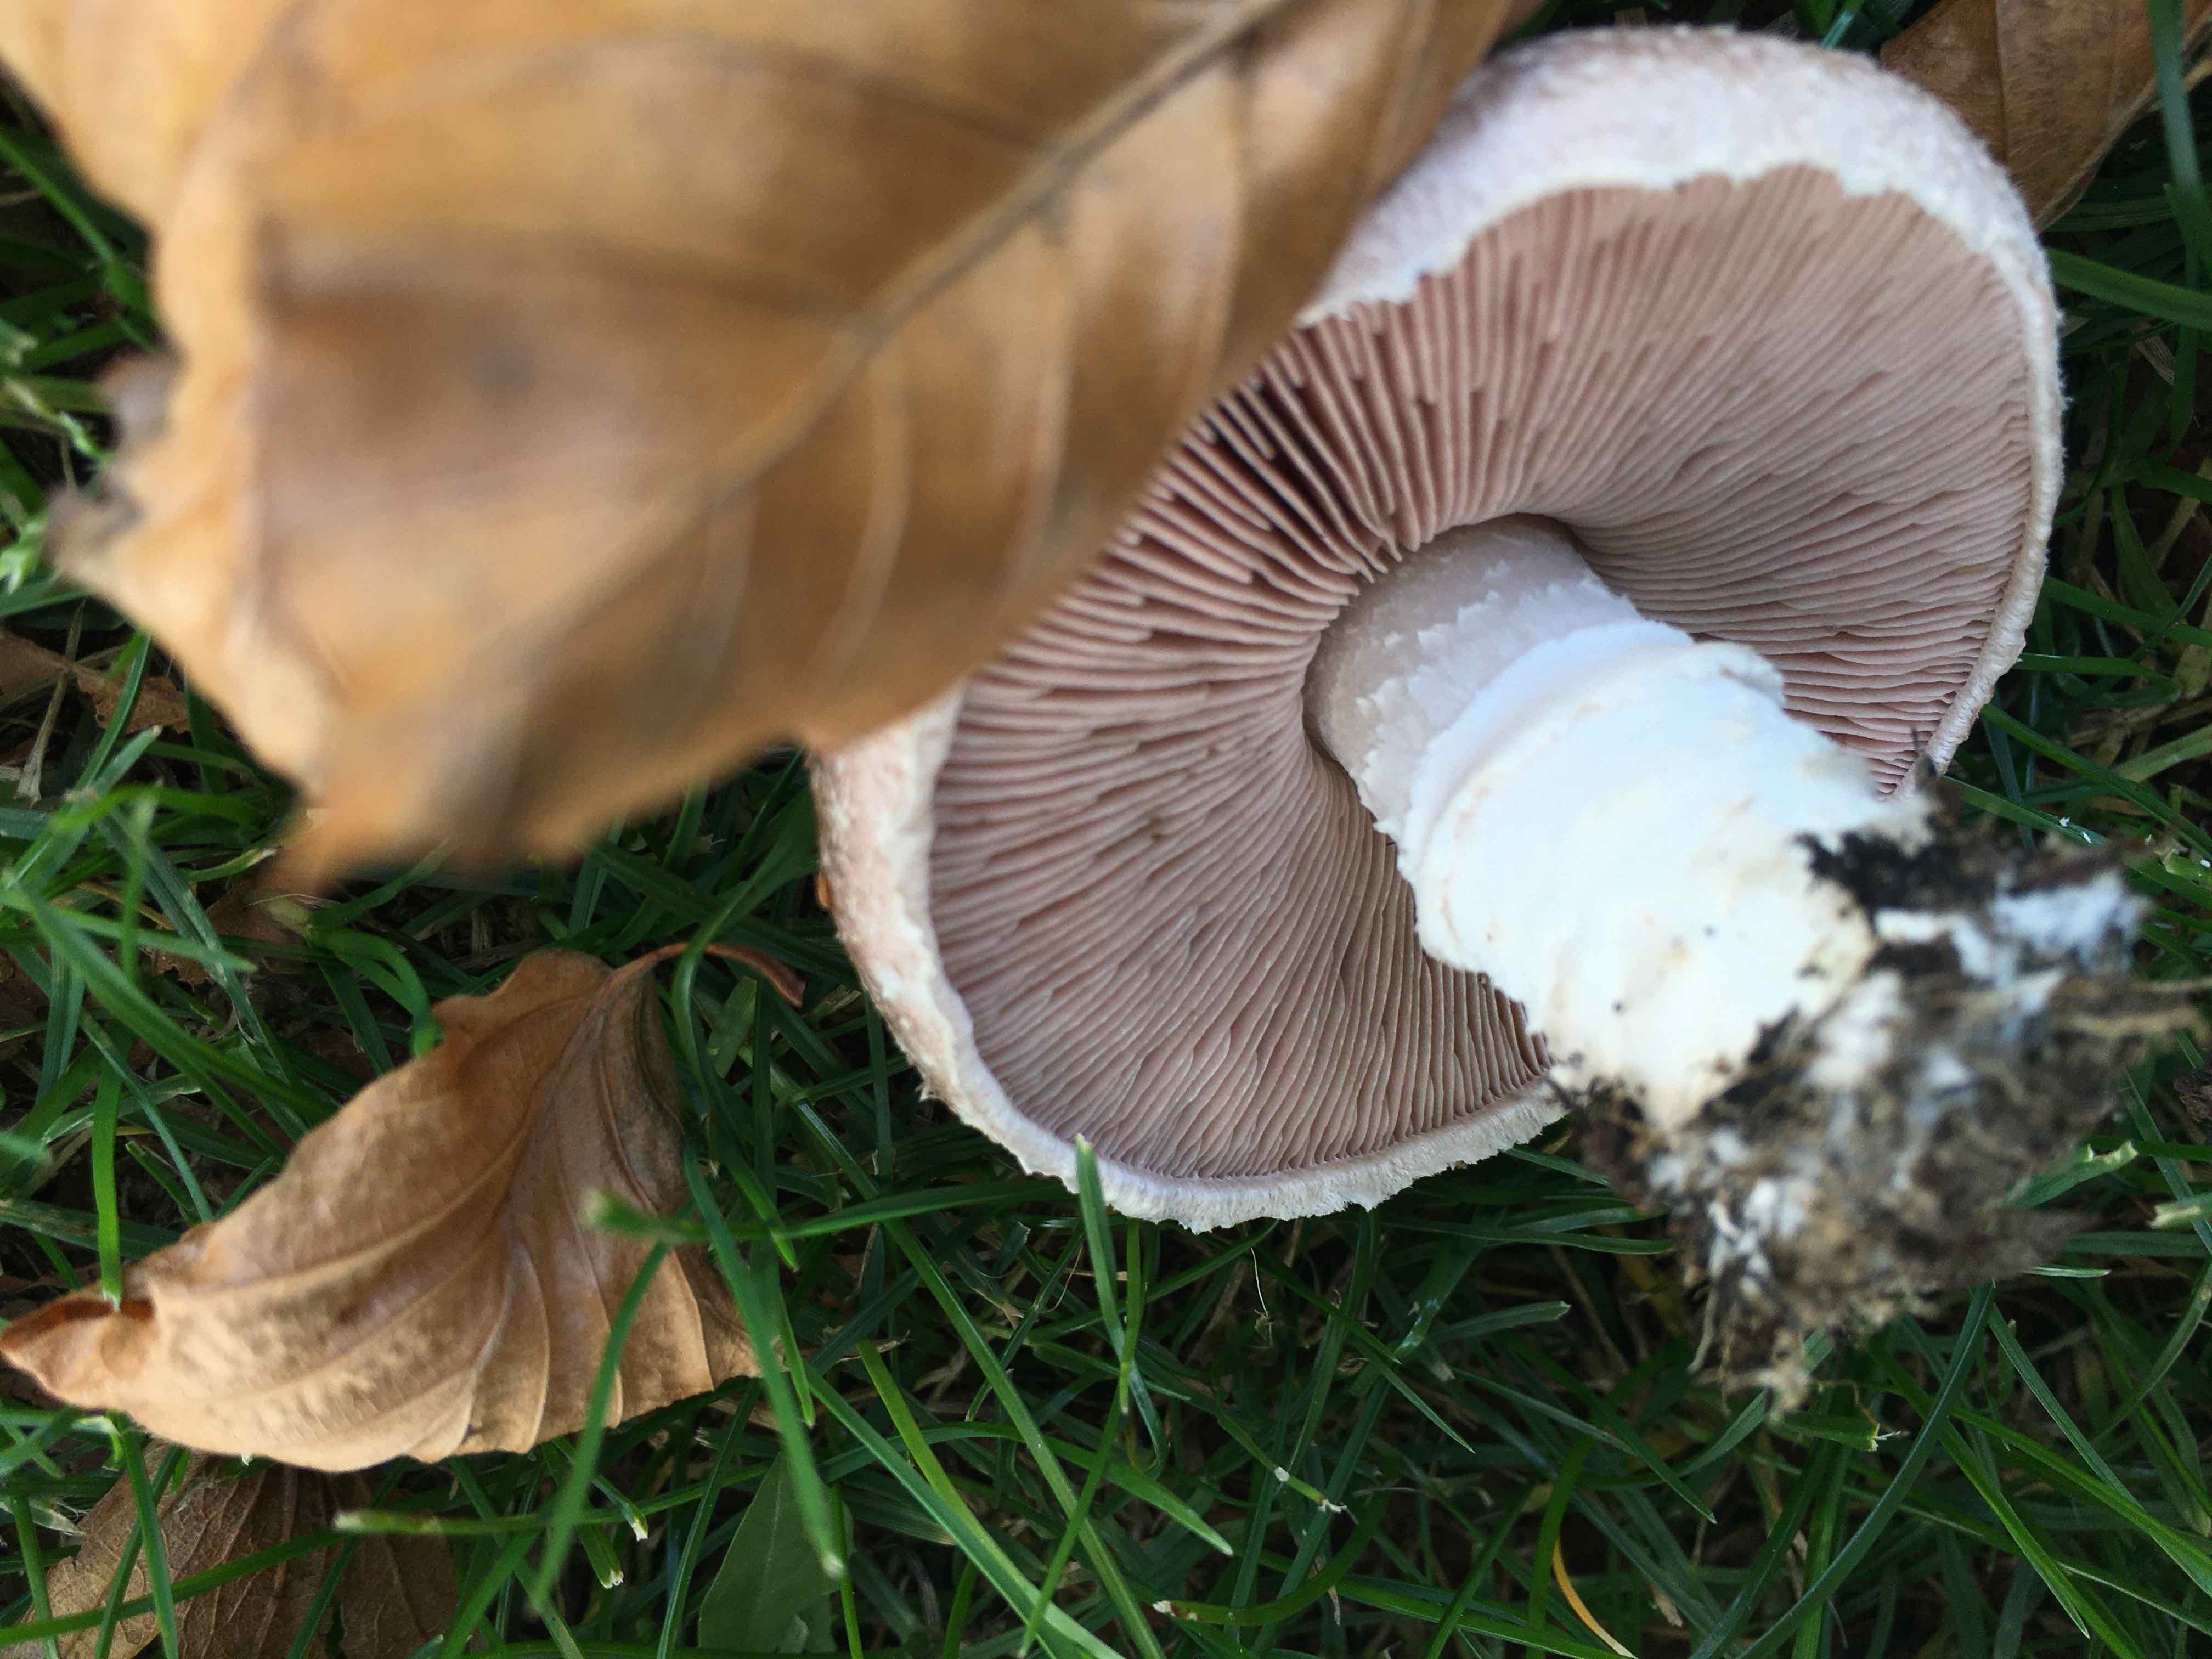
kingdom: Fungi
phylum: Basidiomycota
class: Agaricomycetes
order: Agaricales
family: Agaricaceae
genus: Agaricus
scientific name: Agaricus
